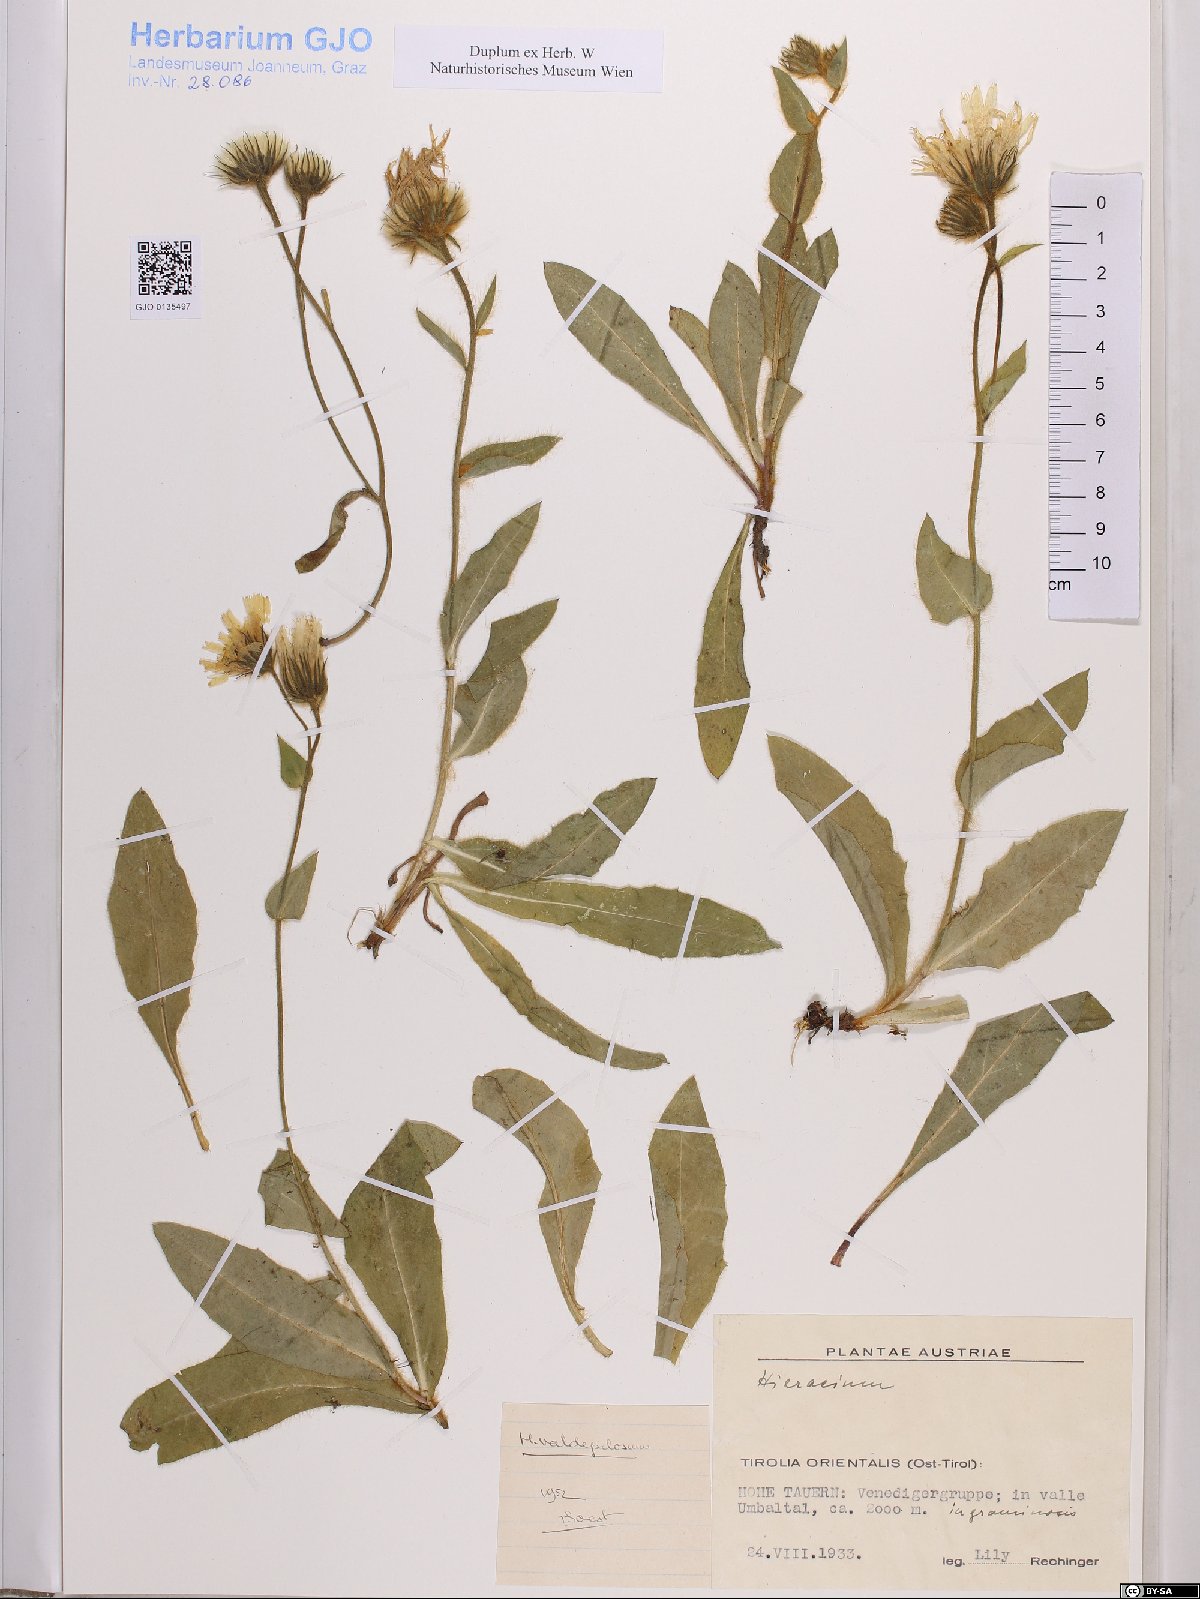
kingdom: Plantae
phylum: Tracheophyta
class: Magnoliopsida
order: Asterales
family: Asteraceae
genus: Hieracium
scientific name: Hieracium valdepilosum
